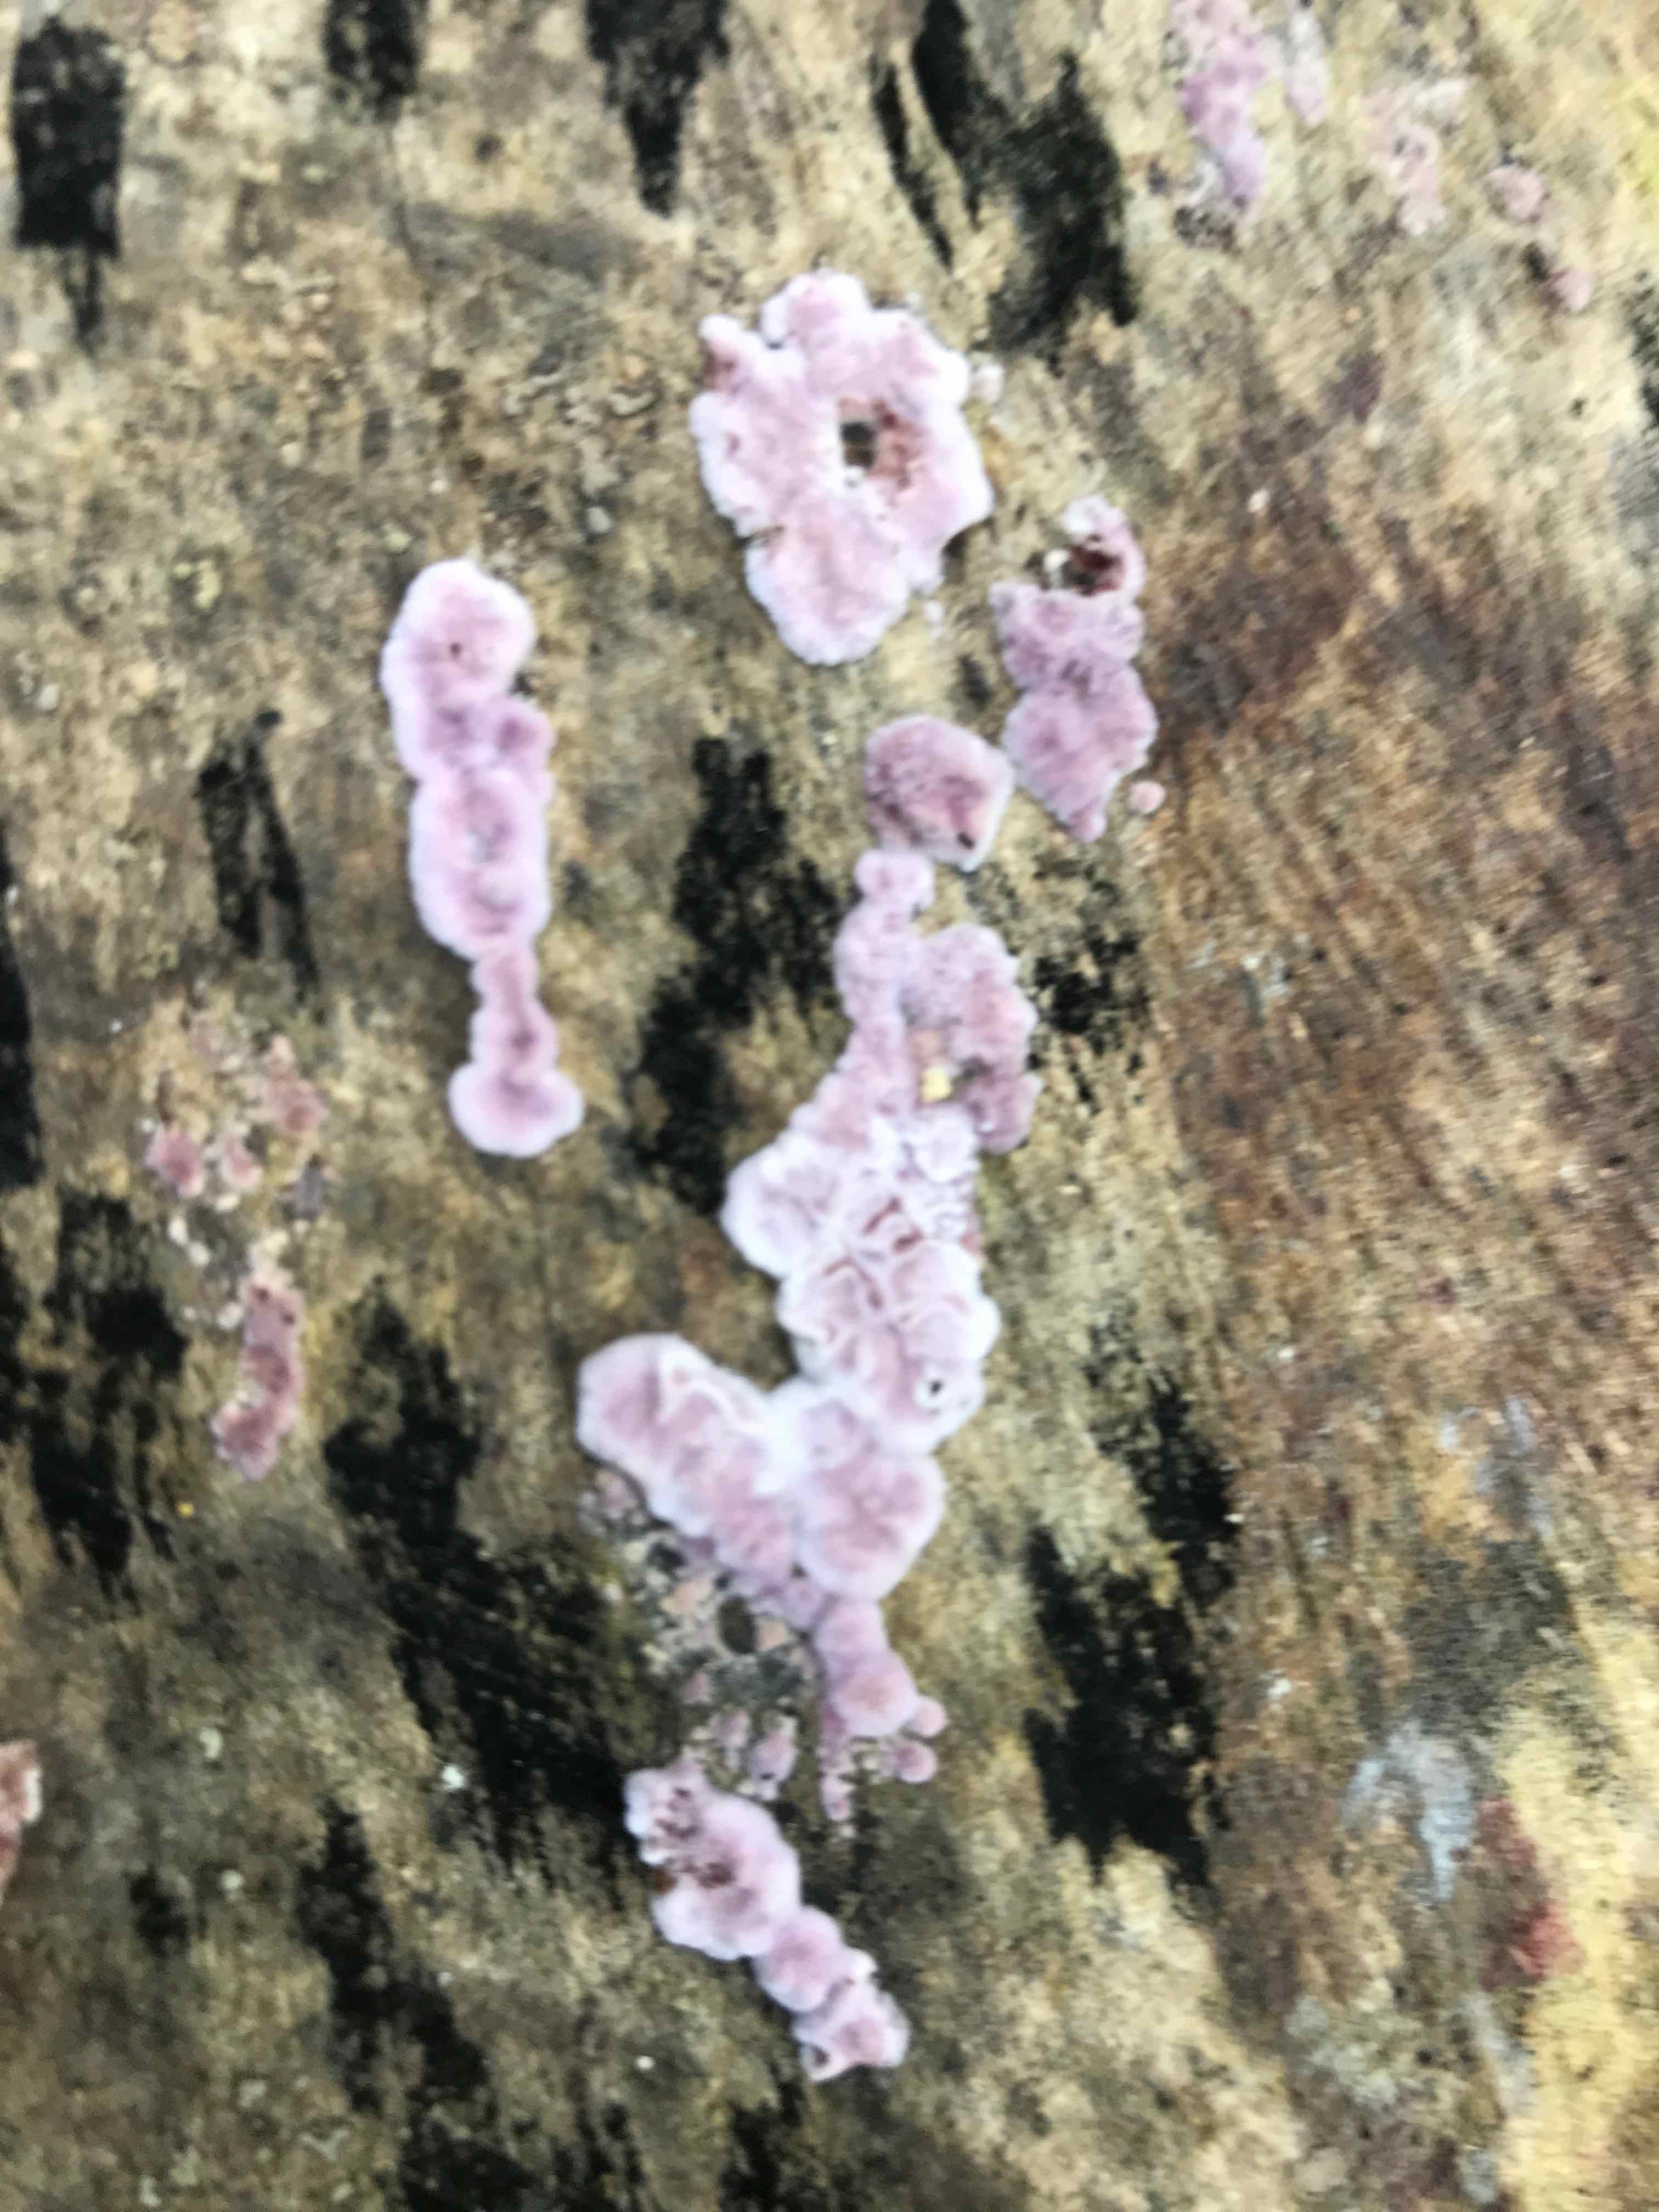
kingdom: Fungi
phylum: Basidiomycota
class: Agaricomycetes
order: Agaricales
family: Cyphellaceae
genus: Chondrostereum
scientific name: Chondrostereum purpureum
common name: purpurlædersvamp
